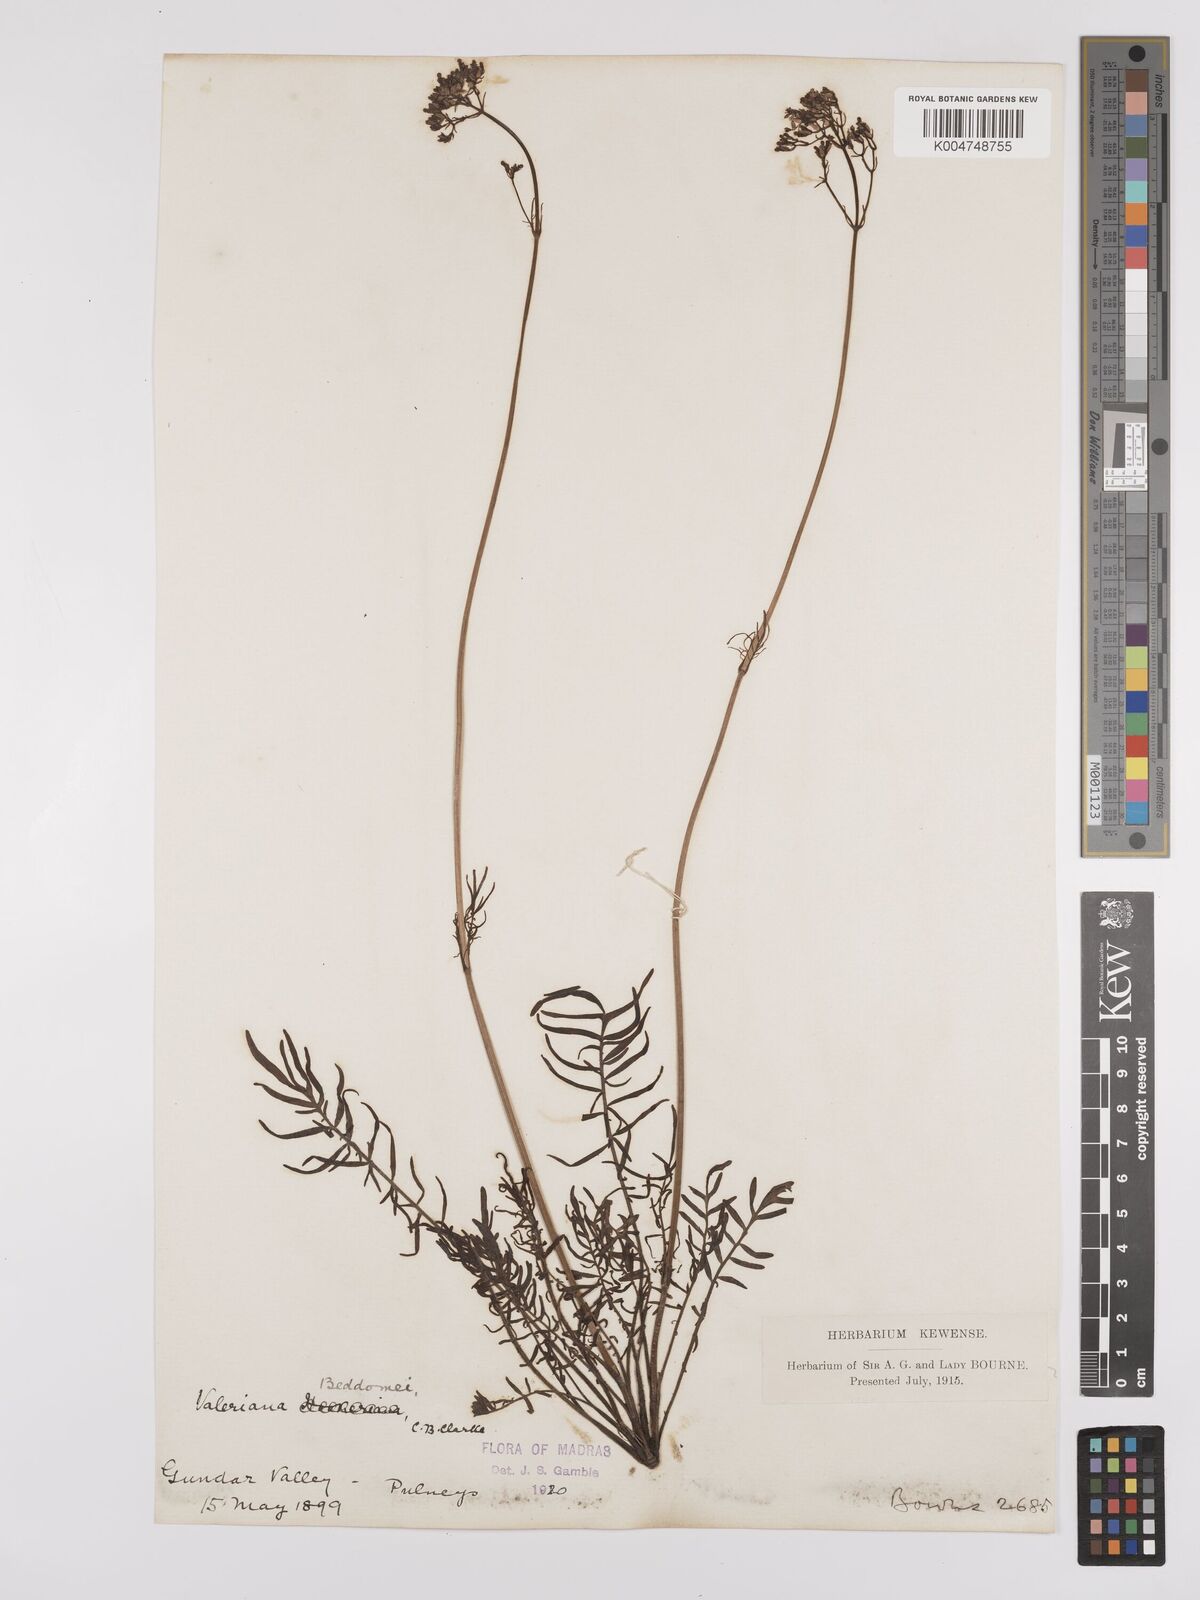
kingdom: Plantae
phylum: Tracheophyta
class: Magnoliopsida
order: Dipsacales
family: Caprifoliaceae
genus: Valeriana
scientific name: Valeriana beddomei
